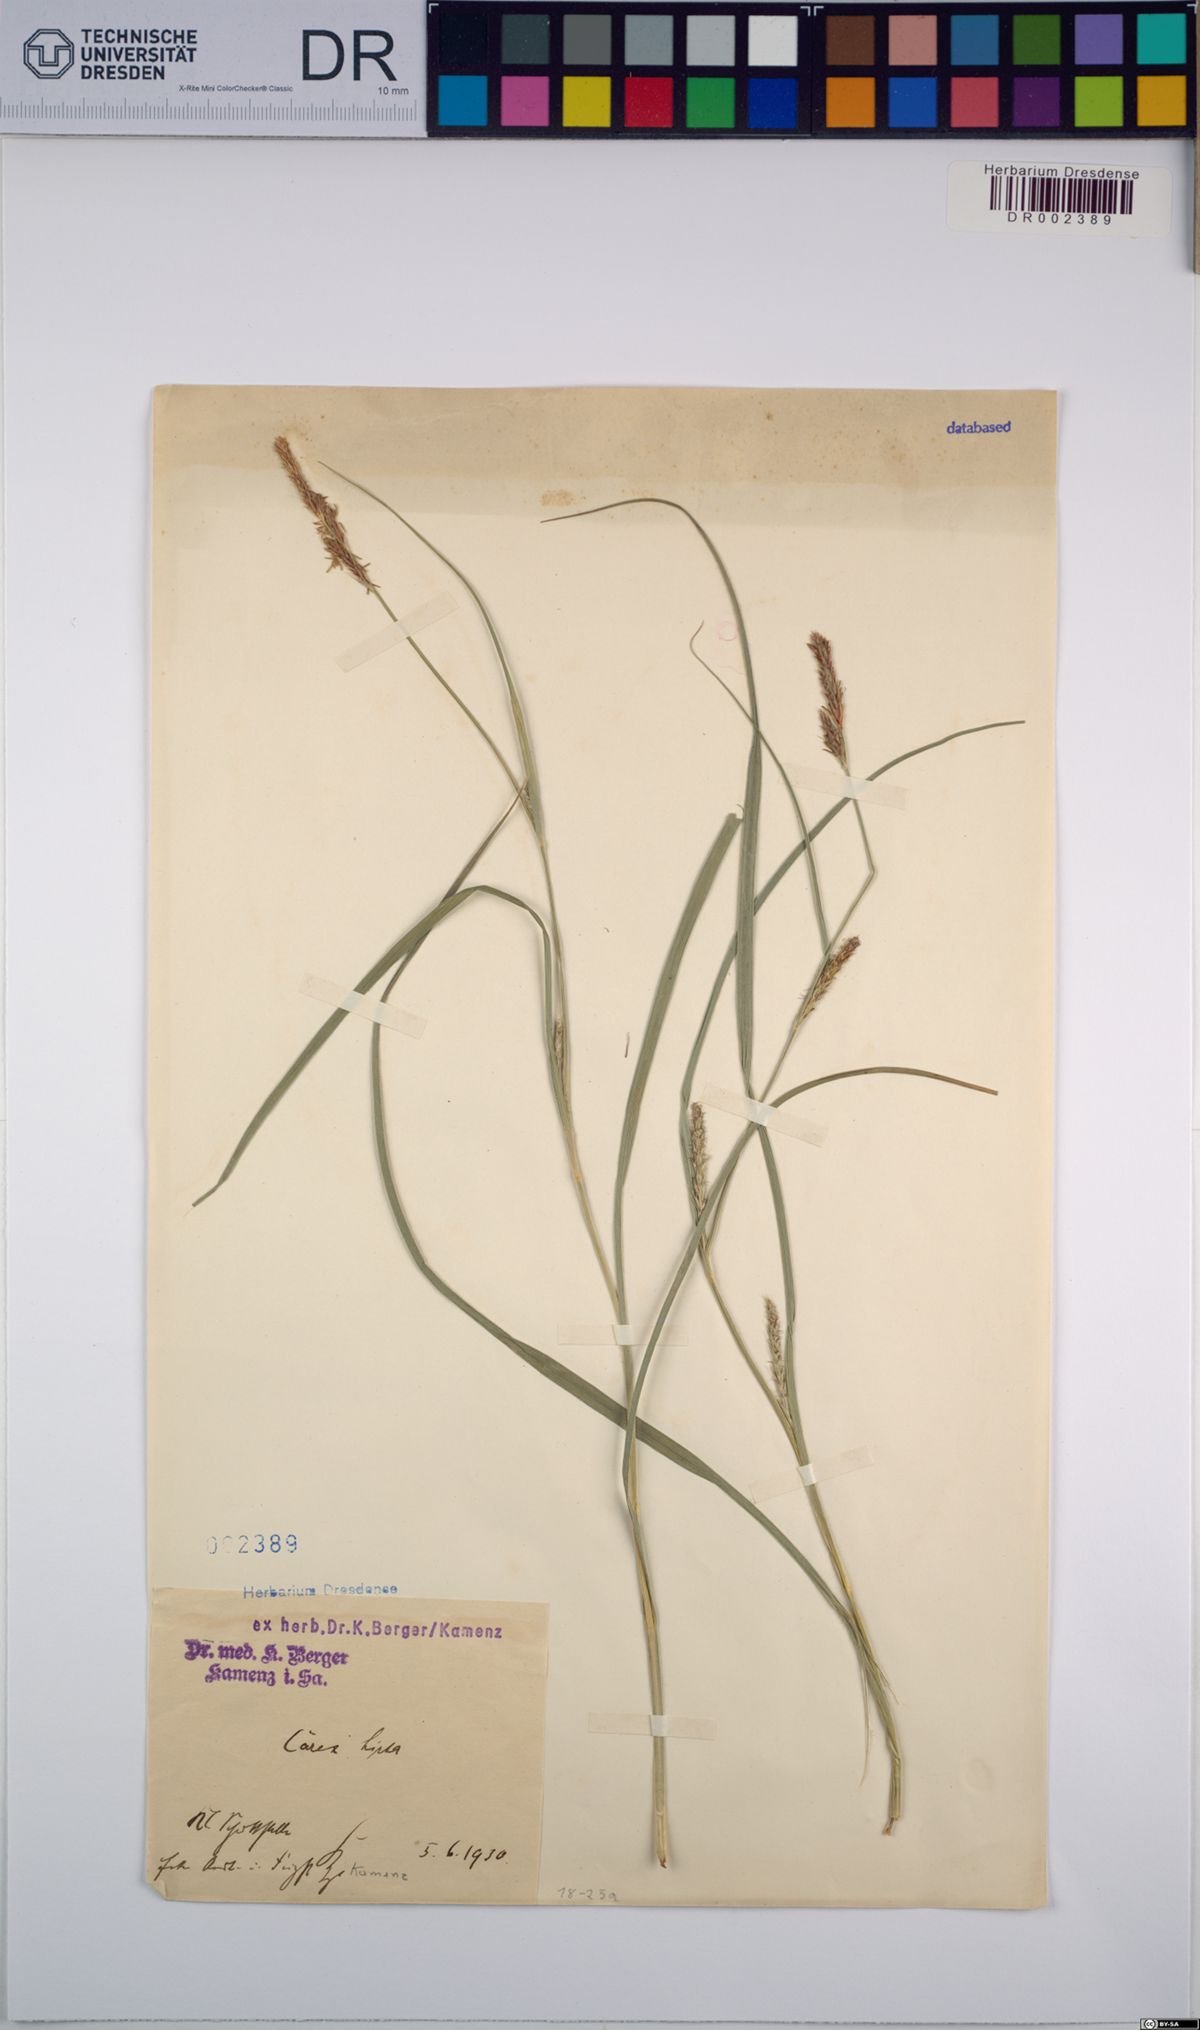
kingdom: Plantae
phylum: Tracheophyta
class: Liliopsida
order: Poales
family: Cyperaceae
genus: Carex
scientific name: Carex hirta
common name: Hairy sedge
